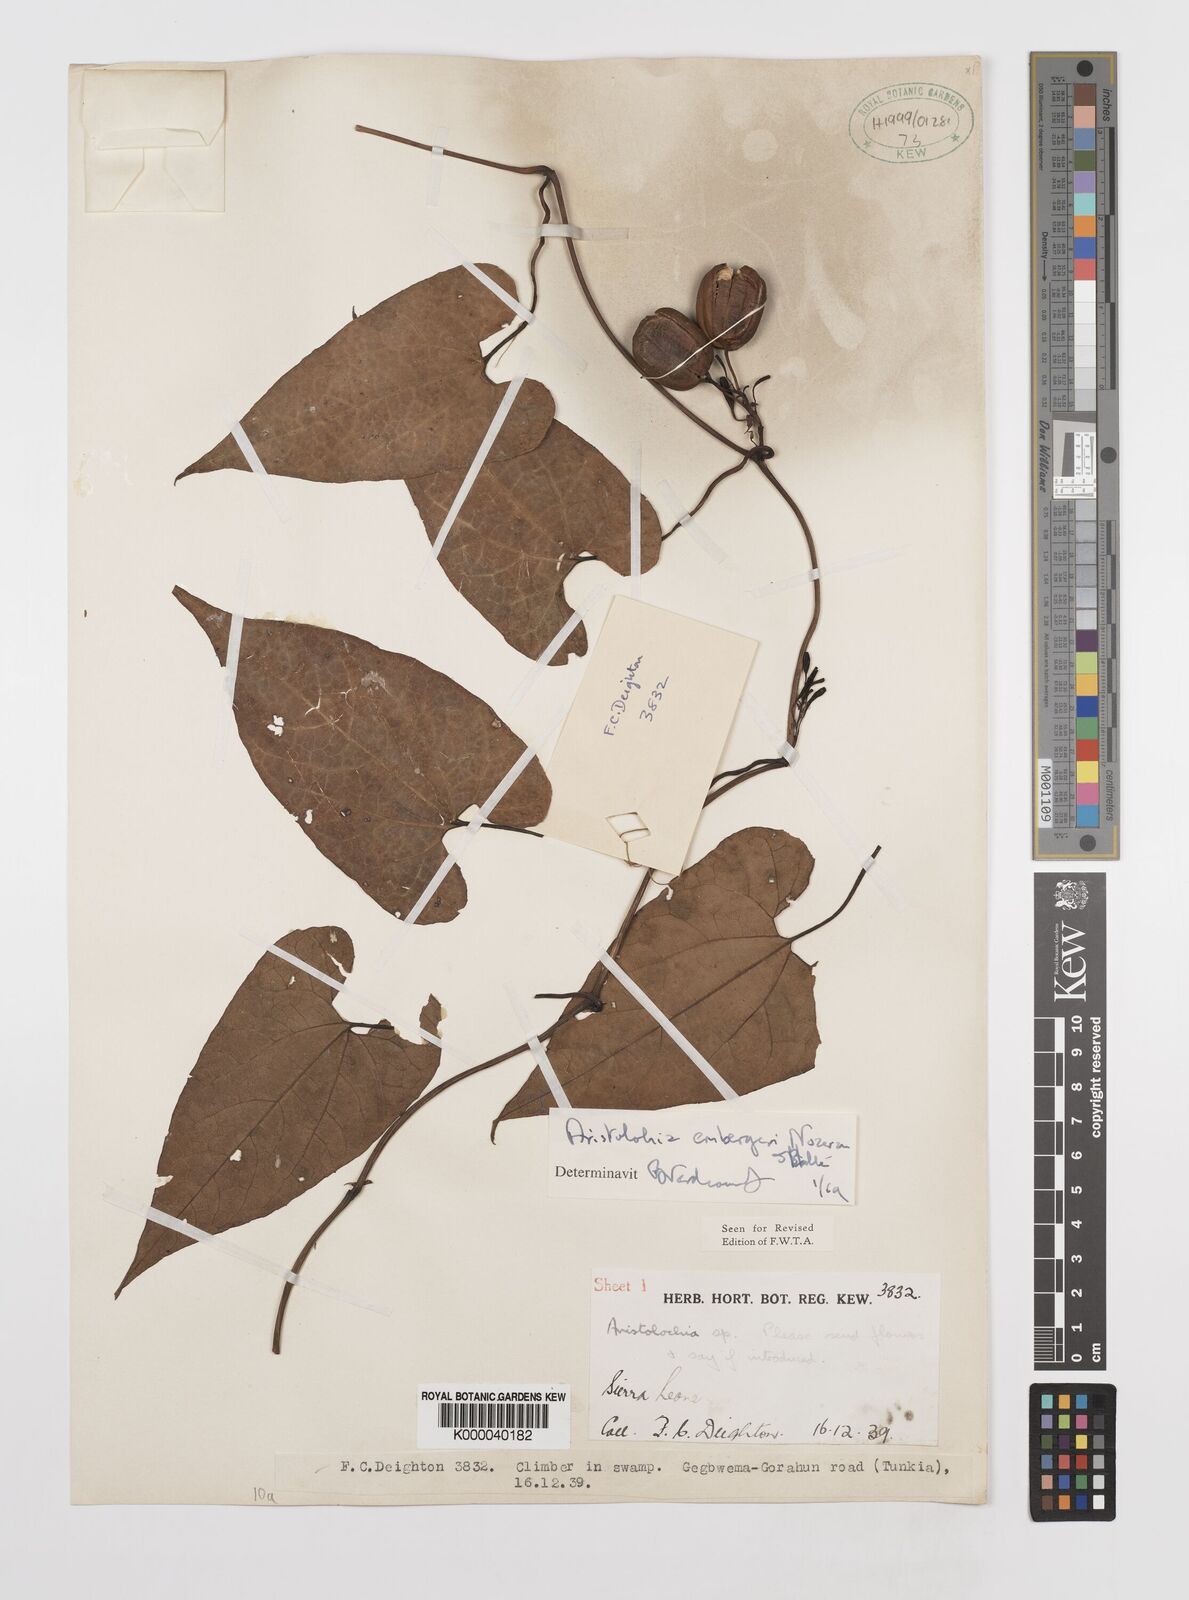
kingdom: Plantae
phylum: Tracheophyta
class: Magnoliopsida
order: Piperales
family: Aristolochiaceae
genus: Aristolochia
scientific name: Aristolochia embergeri
